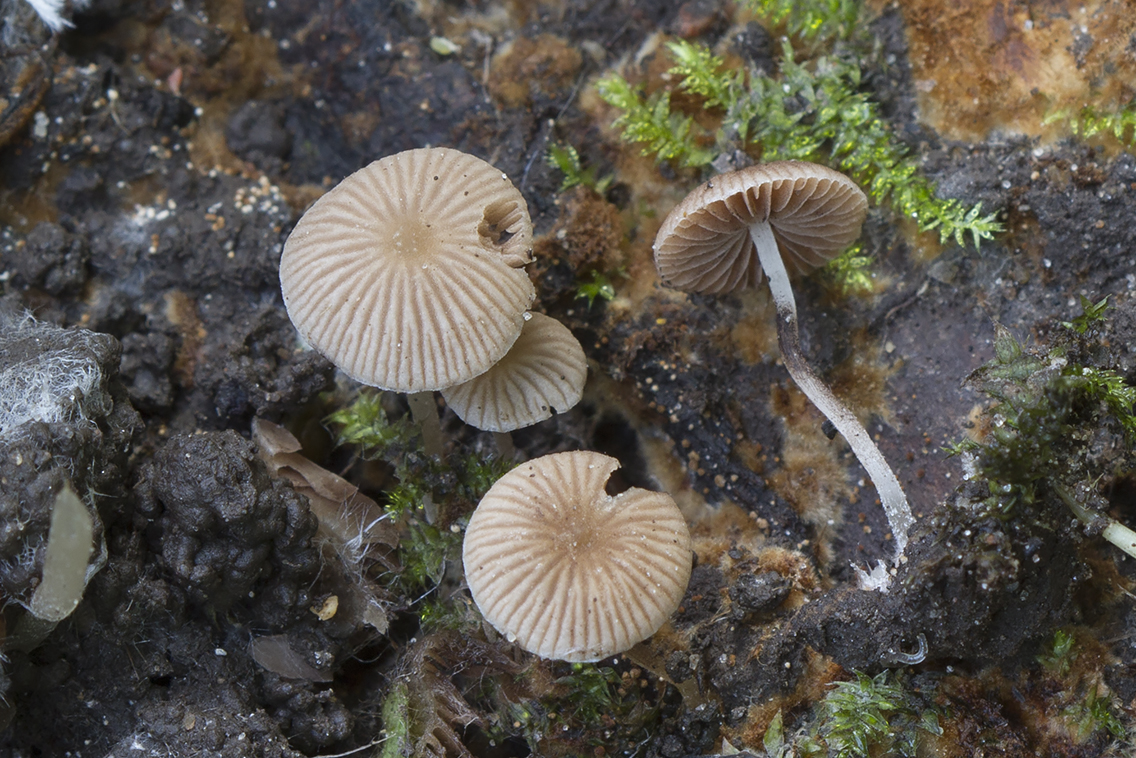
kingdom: Fungi
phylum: Basidiomycota
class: Agaricomycetes
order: Agaricales
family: Psathyrellaceae
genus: Psathyrella
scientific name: Psathyrella pygmaea
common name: dværg-mørkhat
